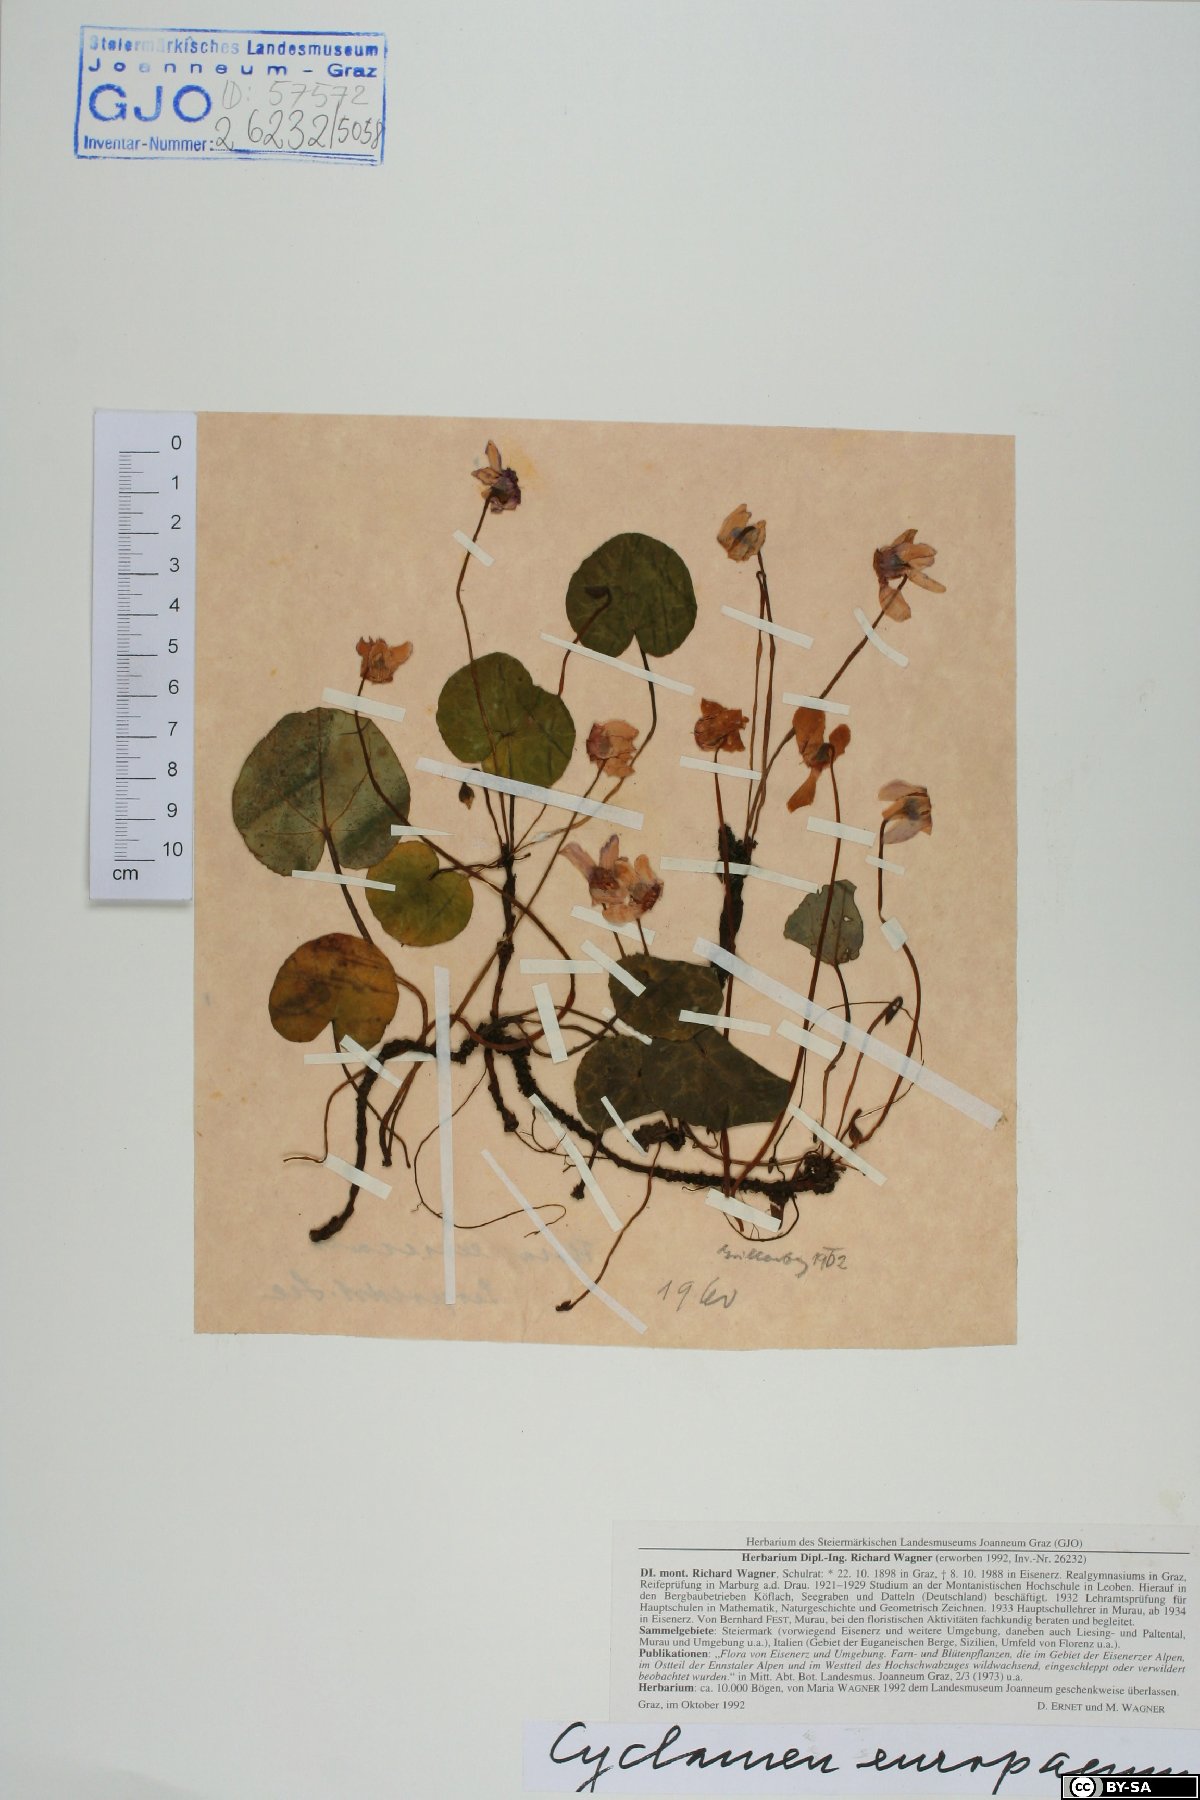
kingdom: Plantae
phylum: Tracheophyta
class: Magnoliopsida
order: Ericales
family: Primulaceae
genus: Cyclamen
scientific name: Cyclamen purpurascens
